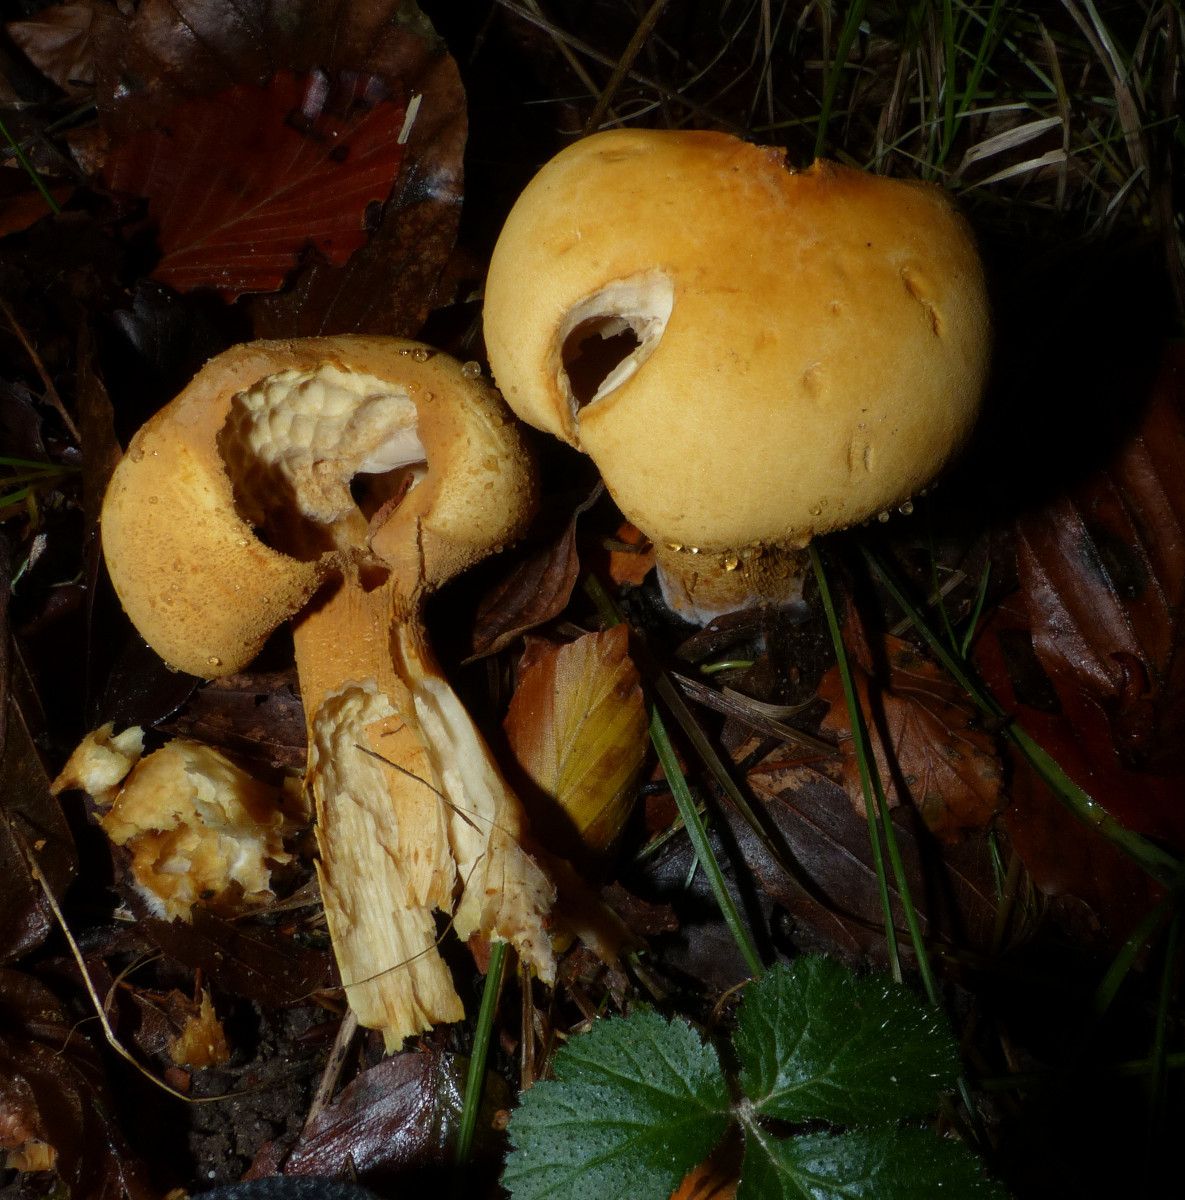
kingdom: Fungi
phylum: Basidiomycota
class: Agaricomycetes
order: Agaricales
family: Tricholomataceae
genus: Phaeolepiota
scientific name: Phaeolepiota aurea
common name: gyldenhat
